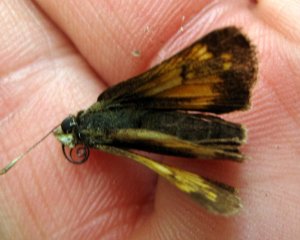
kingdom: Animalia
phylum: Arthropoda
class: Insecta
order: Lepidoptera
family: Hesperiidae
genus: Lon
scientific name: Lon hobomok
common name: Hobomok Skipper
